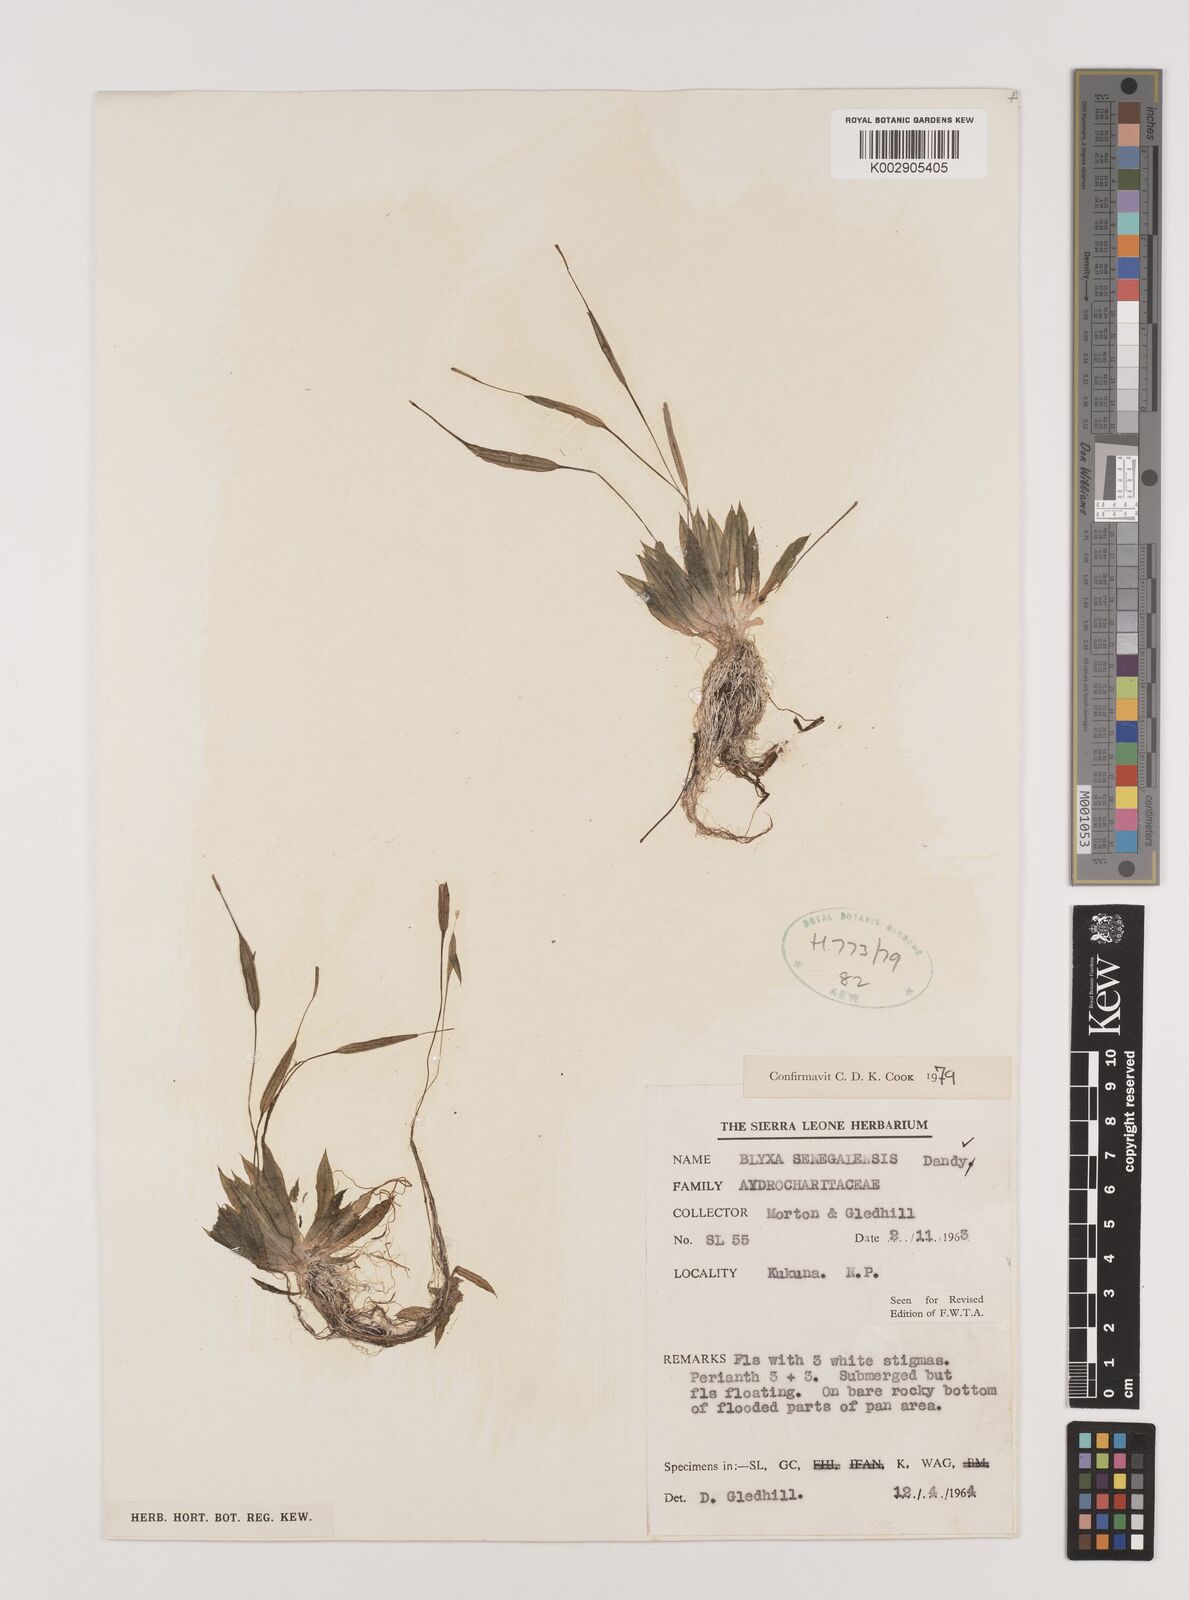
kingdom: Plantae
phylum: Tracheophyta
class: Liliopsida
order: Alismatales
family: Hydrocharitaceae
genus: Blyxa
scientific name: Blyxa senegalensis
